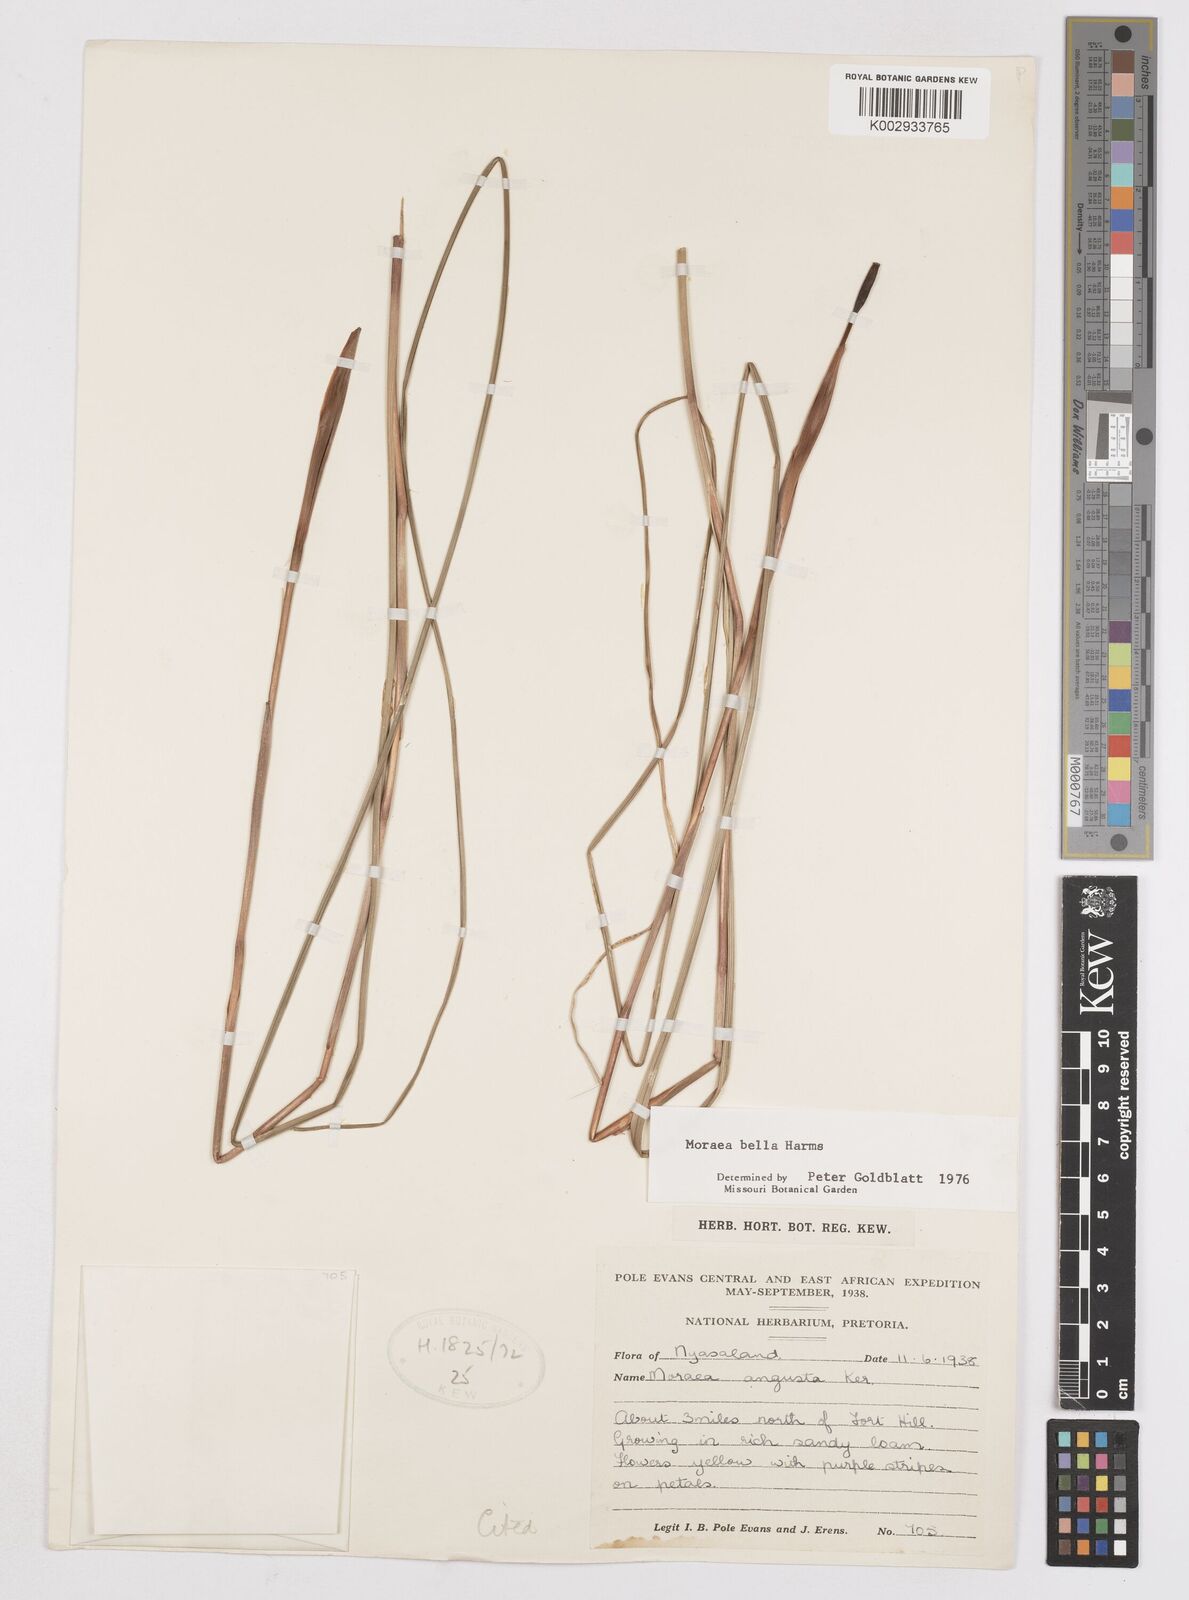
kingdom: Plantae
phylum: Tracheophyta
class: Liliopsida
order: Asparagales
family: Iridaceae
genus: Moraea
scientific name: Moraea bella
